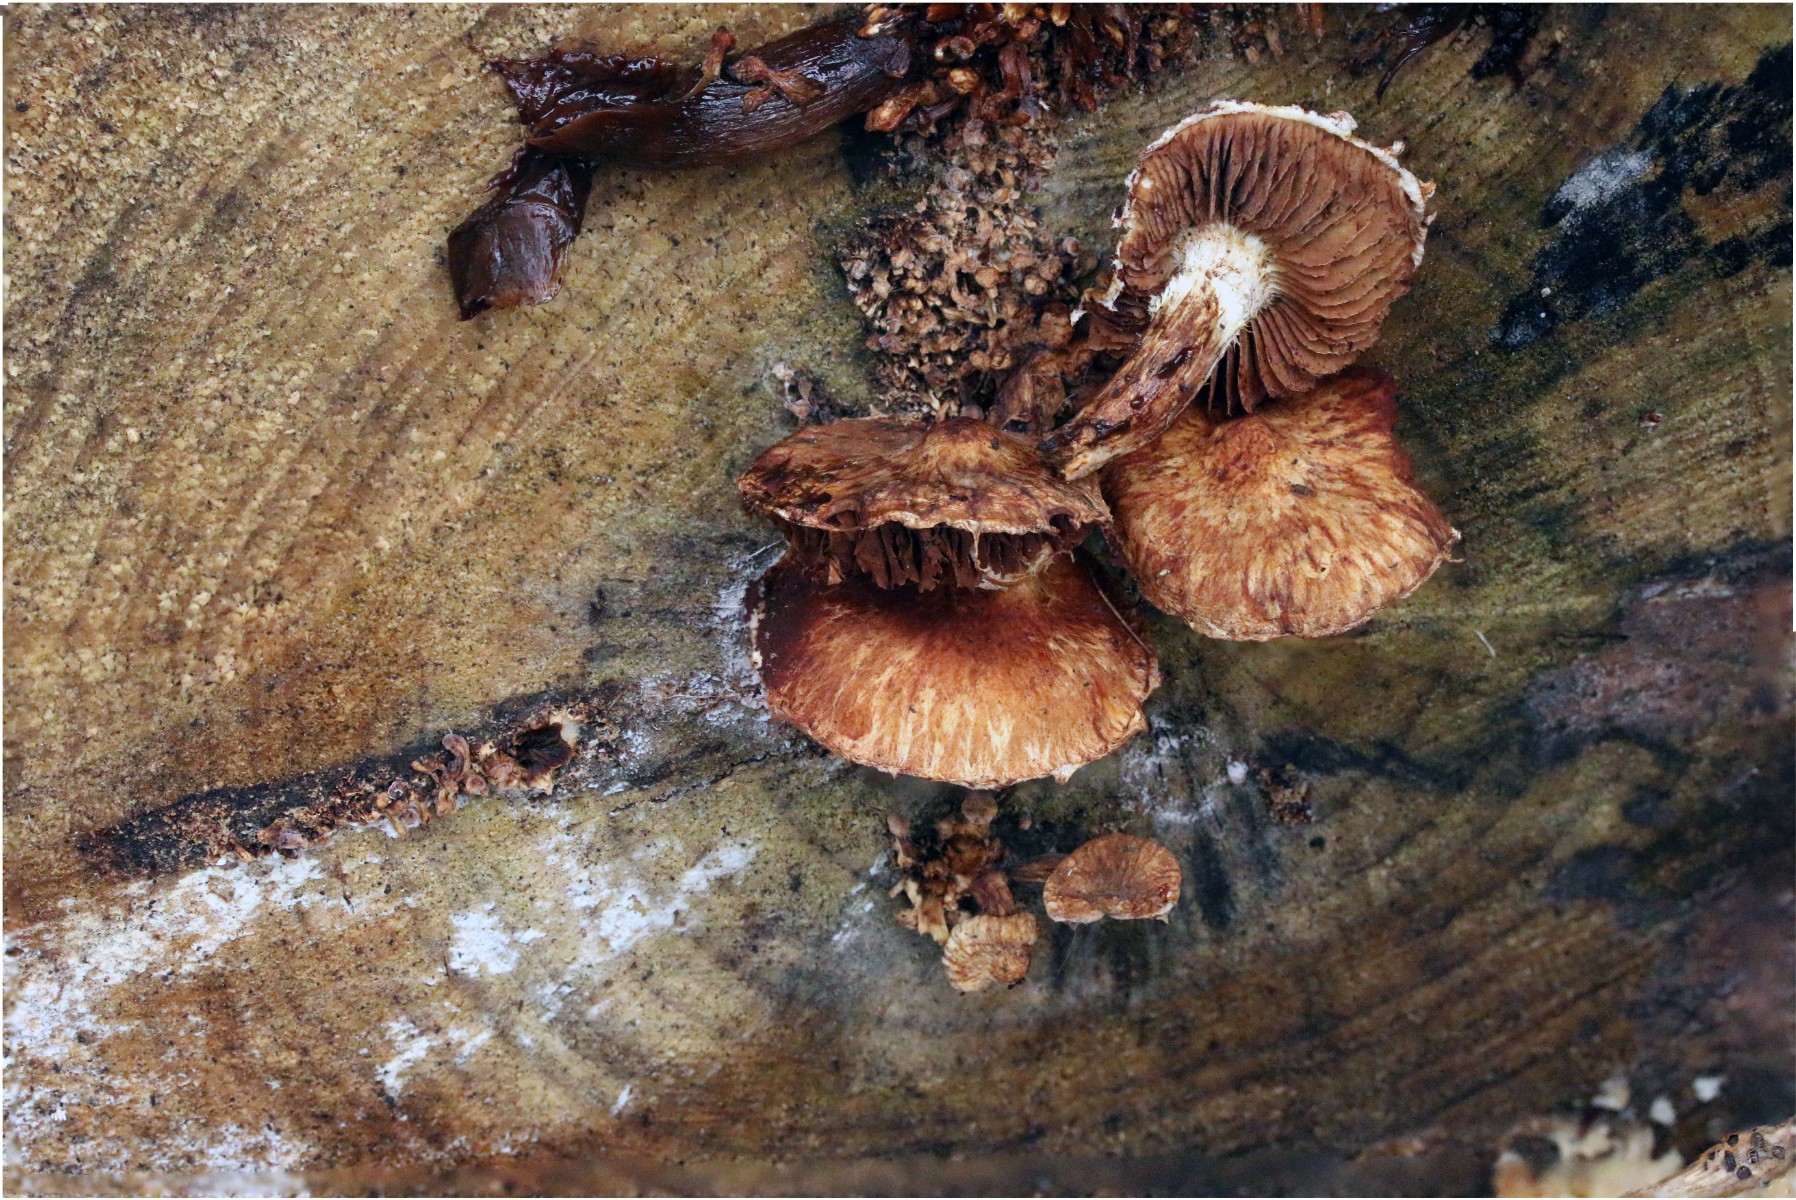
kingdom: Fungi
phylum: Basidiomycota
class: Agaricomycetes
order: Agaricales
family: Strophariaceae
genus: Pholiota
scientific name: Pholiota populnea
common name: poppel-kæmpeskælhat
